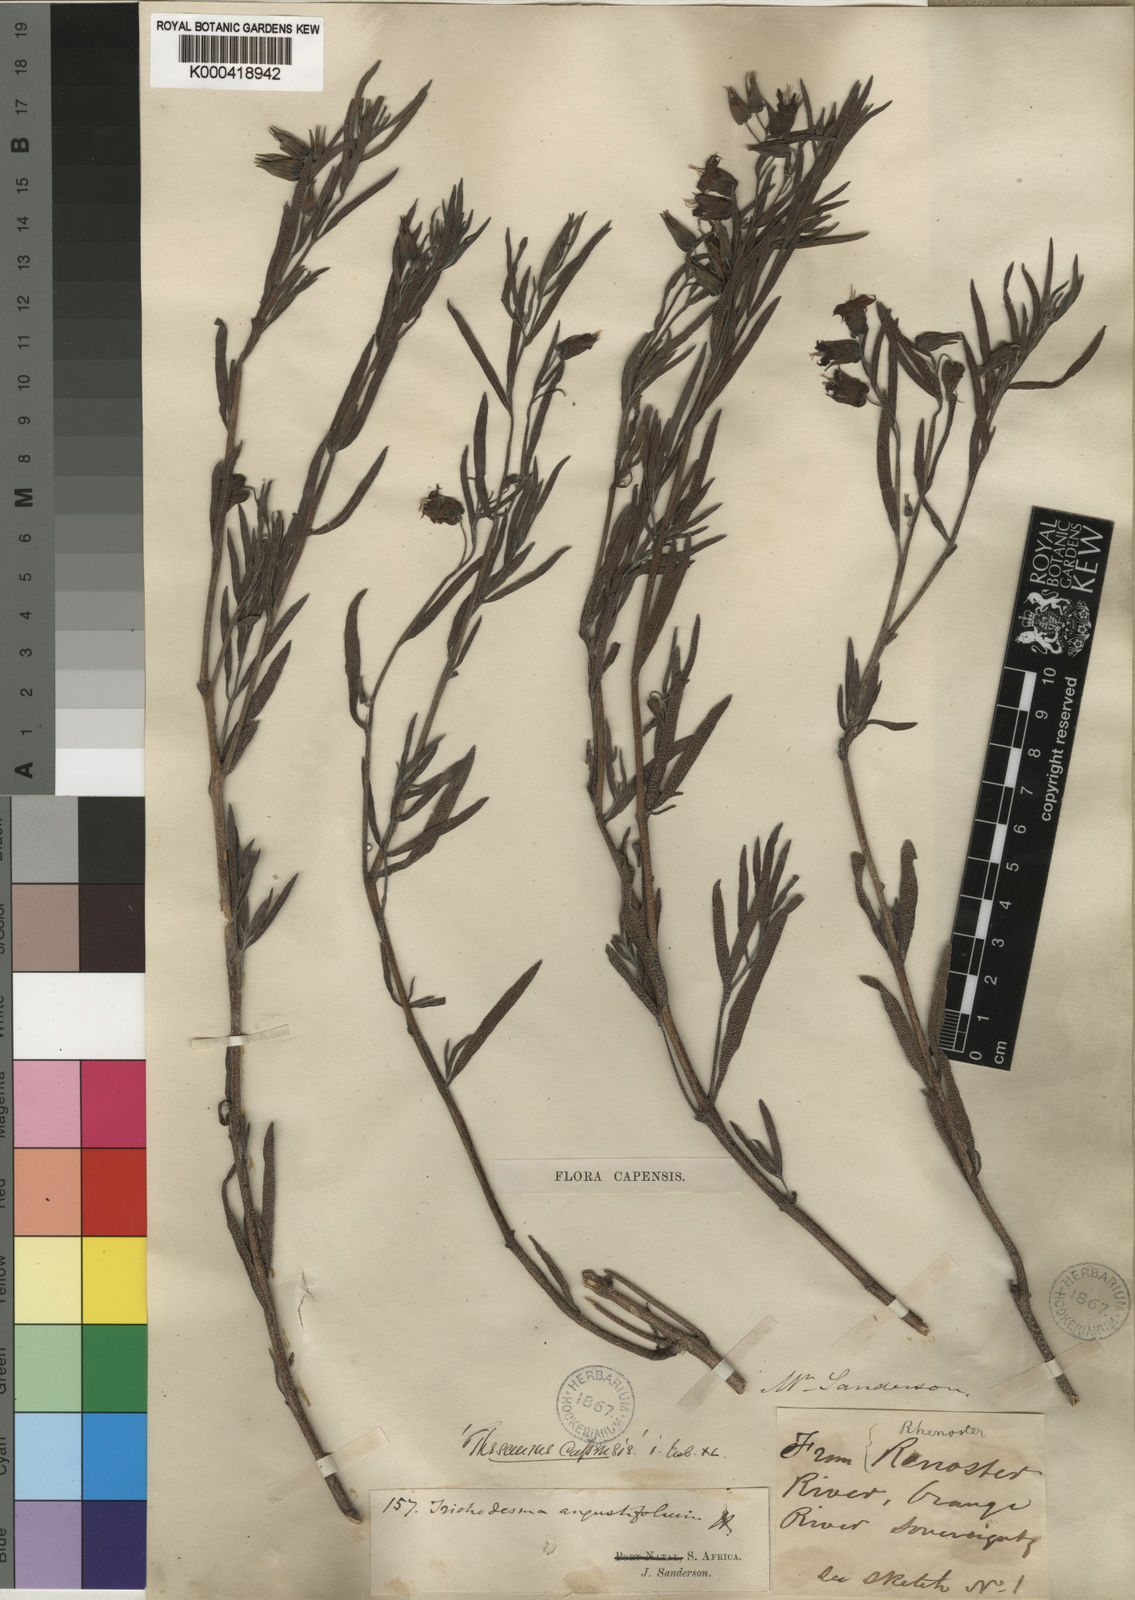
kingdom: Plantae
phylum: Tracheophyta
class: Magnoliopsida
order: Boraginales
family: Boraginaceae
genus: Trichodesma
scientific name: Trichodesma angustifolium
